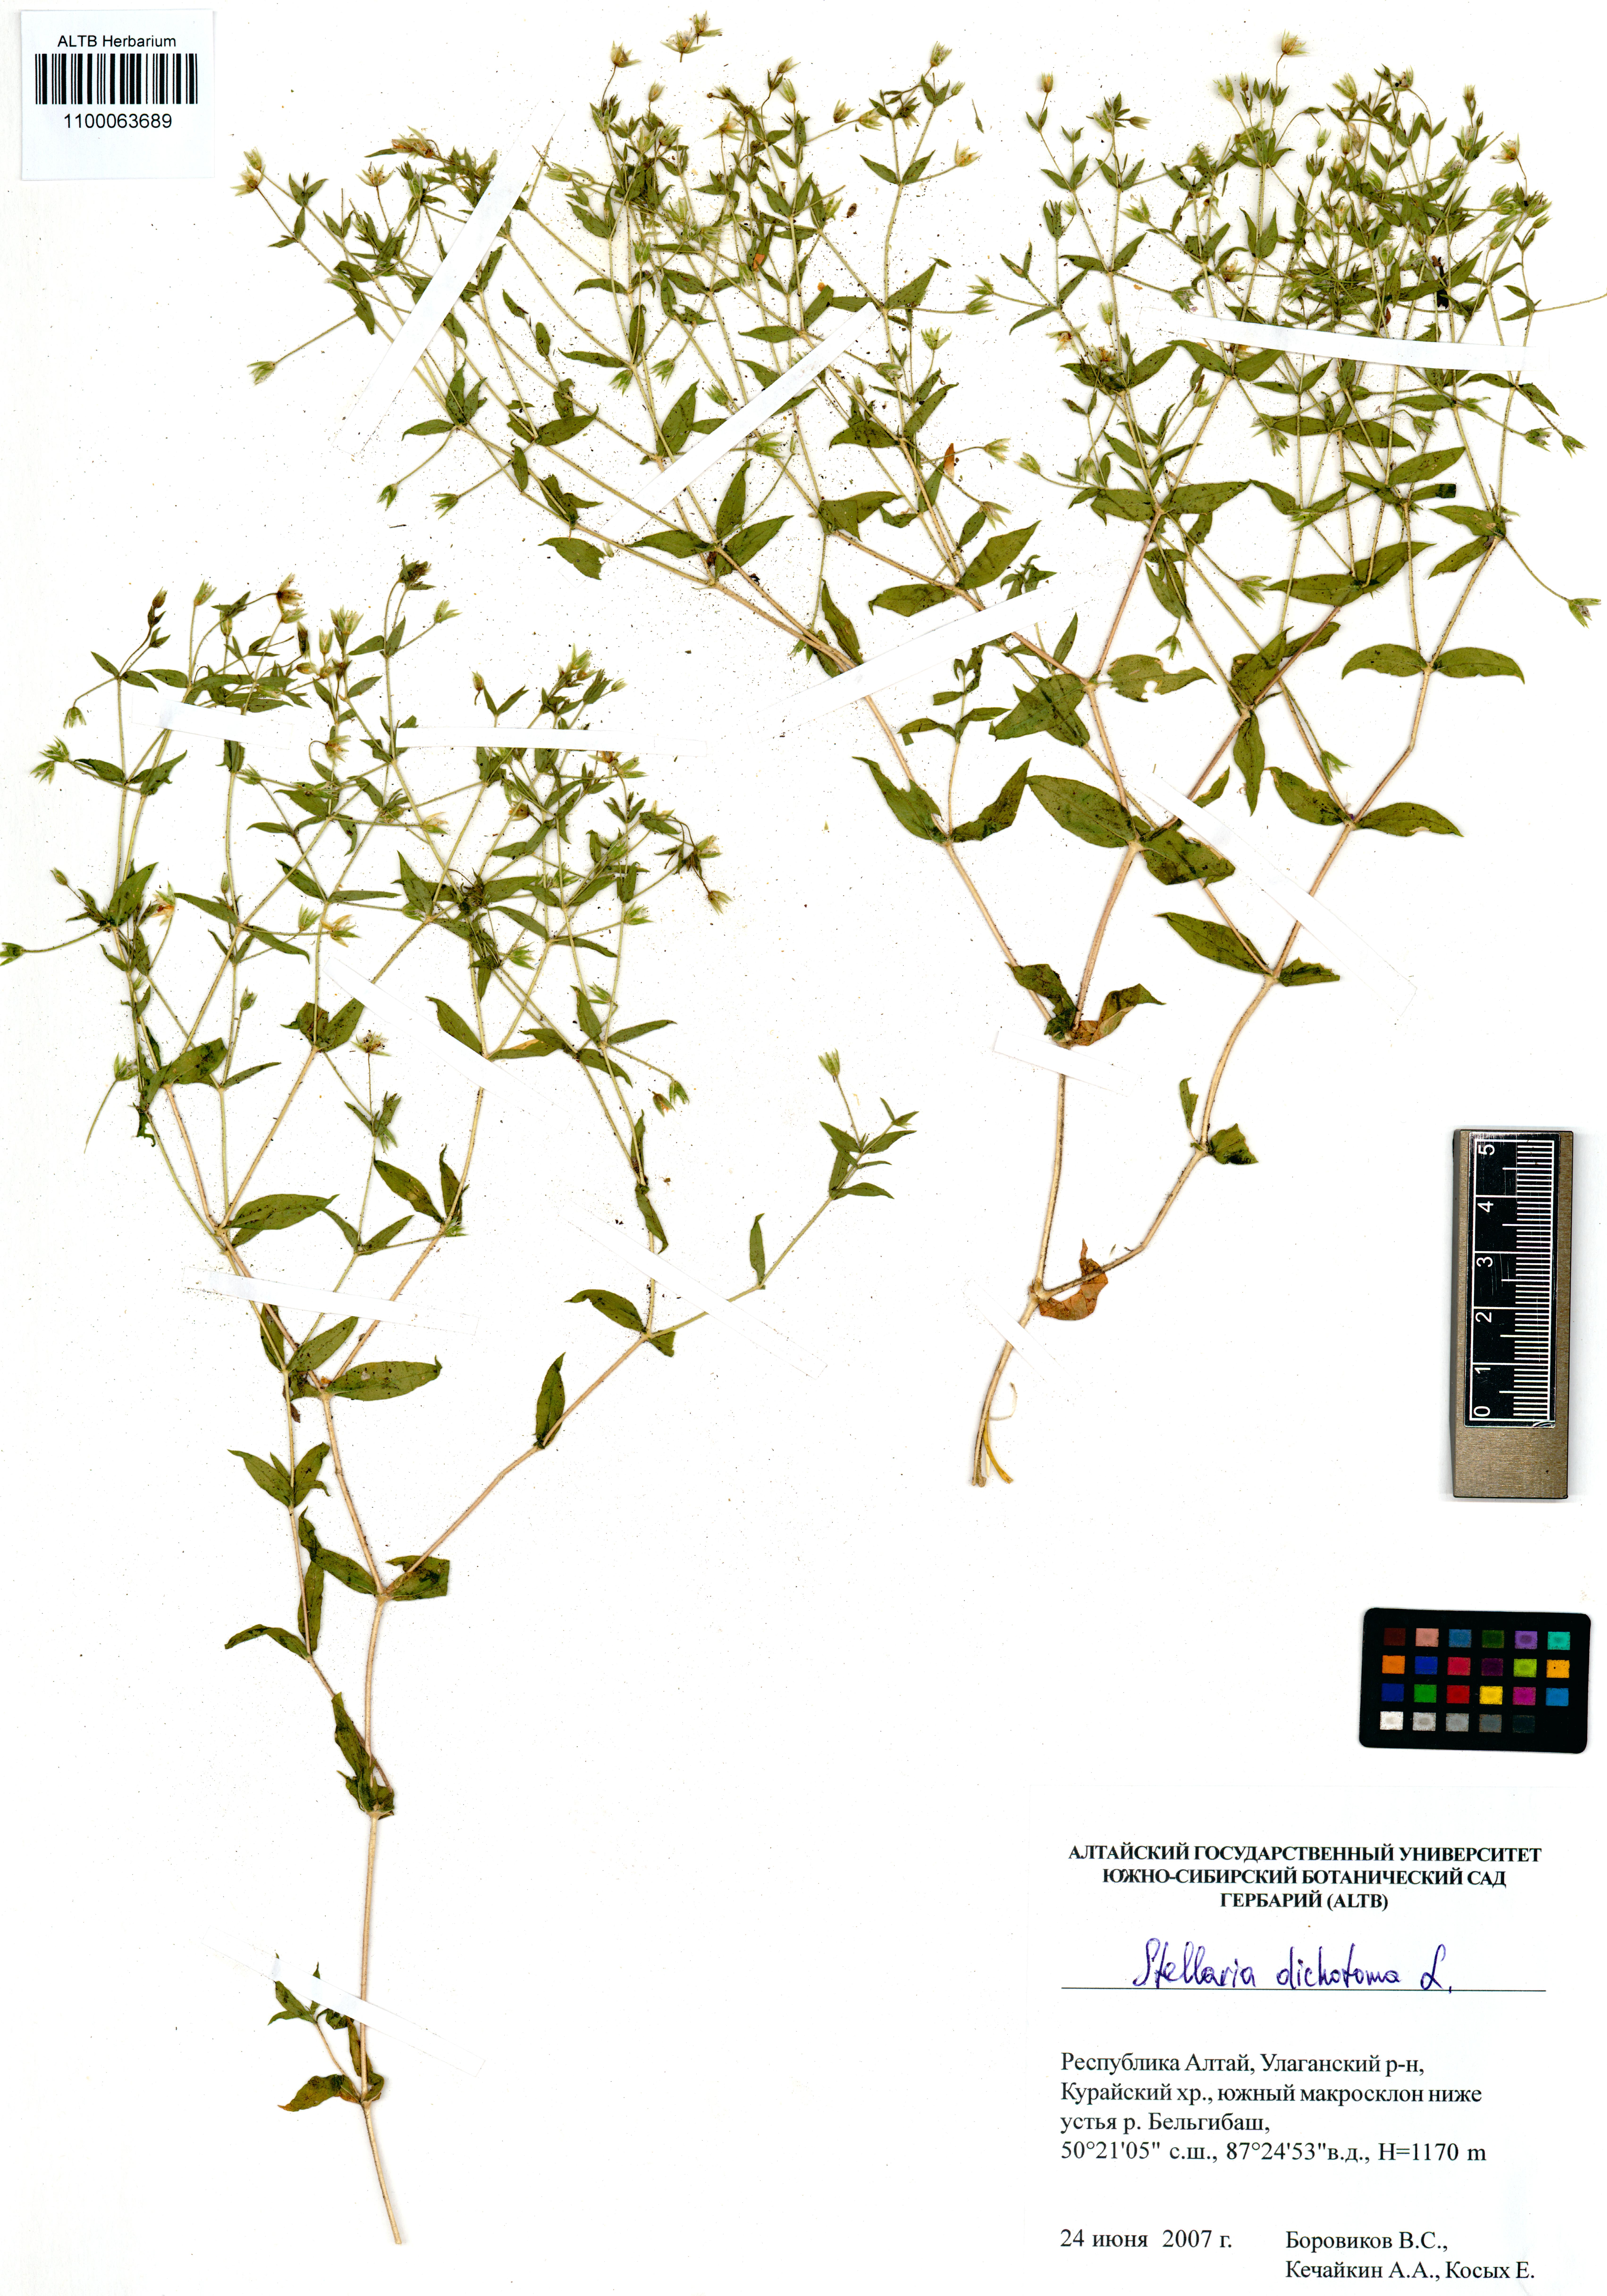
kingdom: Plantae
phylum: Tracheophyta
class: Magnoliopsida
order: Caryophyllales
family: Caryophyllaceae
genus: Mesostemma
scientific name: Mesostemma dichotomum
